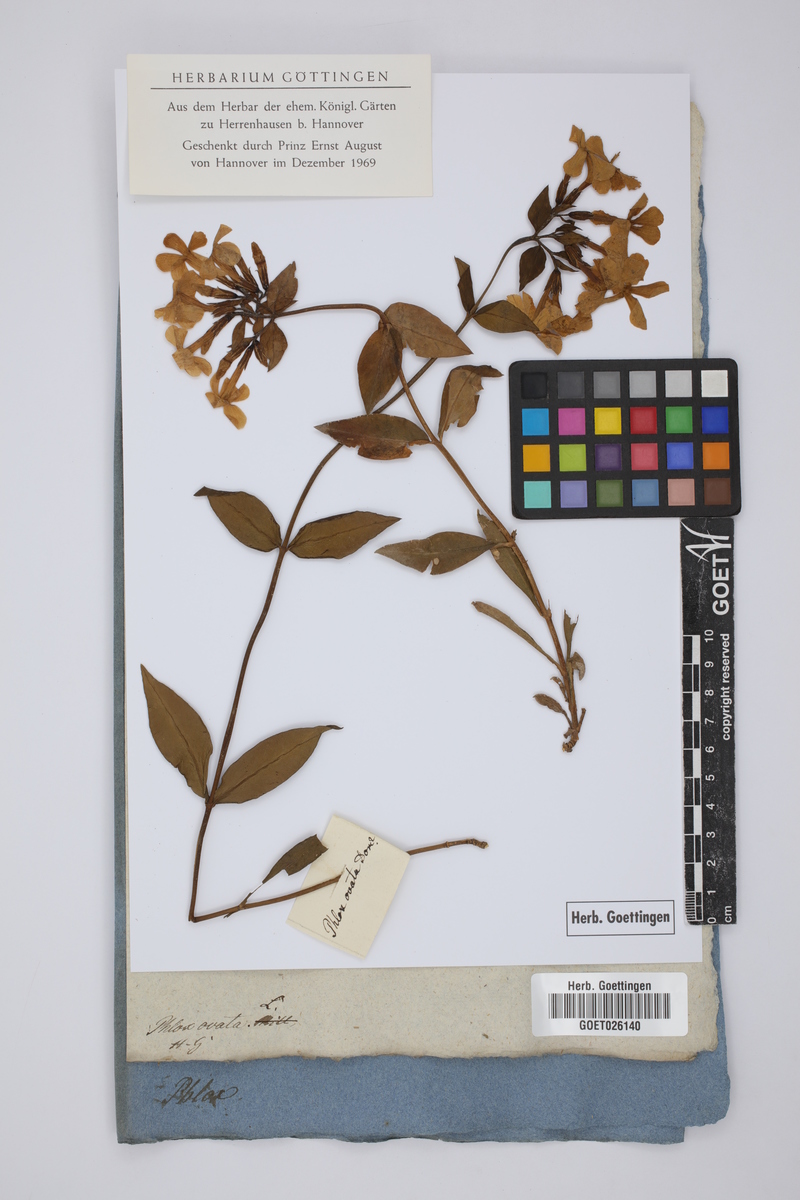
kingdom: Plantae
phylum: Tracheophyta
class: Magnoliopsida
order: Ericales
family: Polemoniaceae
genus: Phlox
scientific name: Phlox ovata
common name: Mountain phlox
